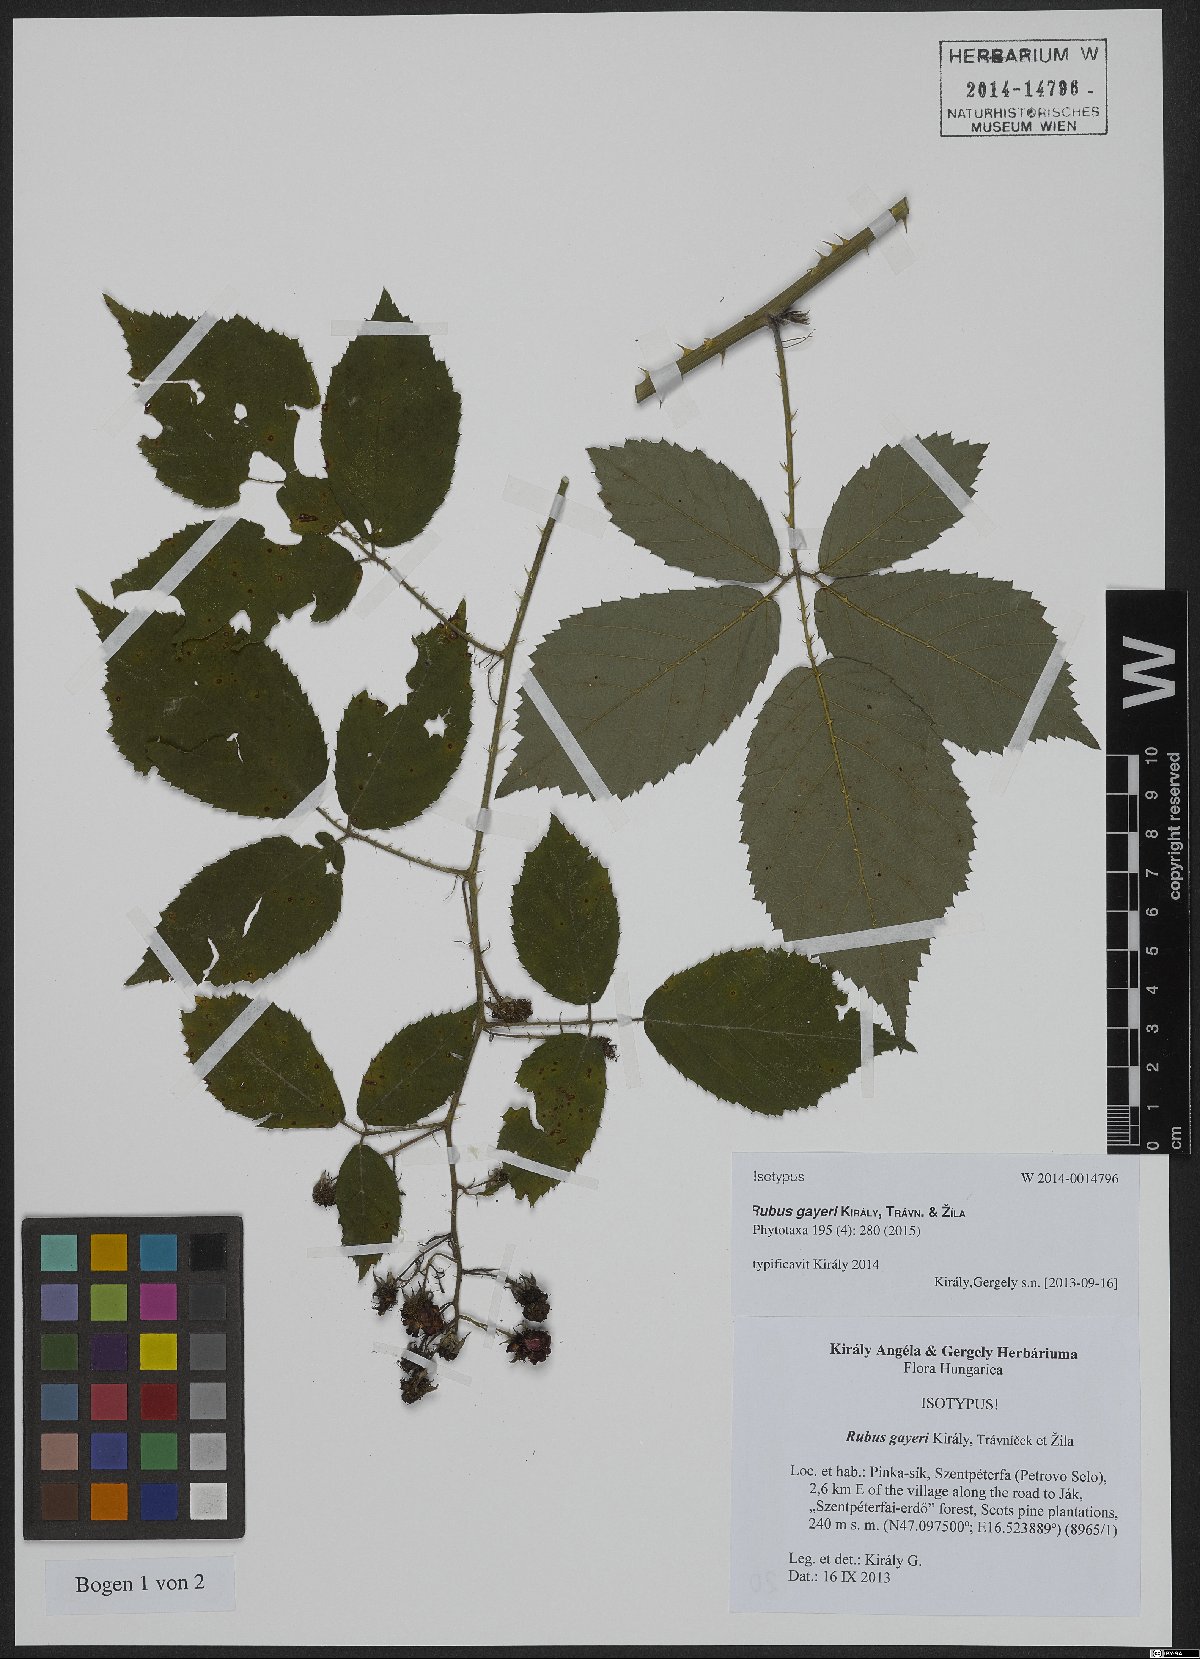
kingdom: Plantae
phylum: Tracheophyta
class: Magnoliopsida
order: Rosales
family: Rosaceae
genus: Rubus
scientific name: Rubus gayeri
